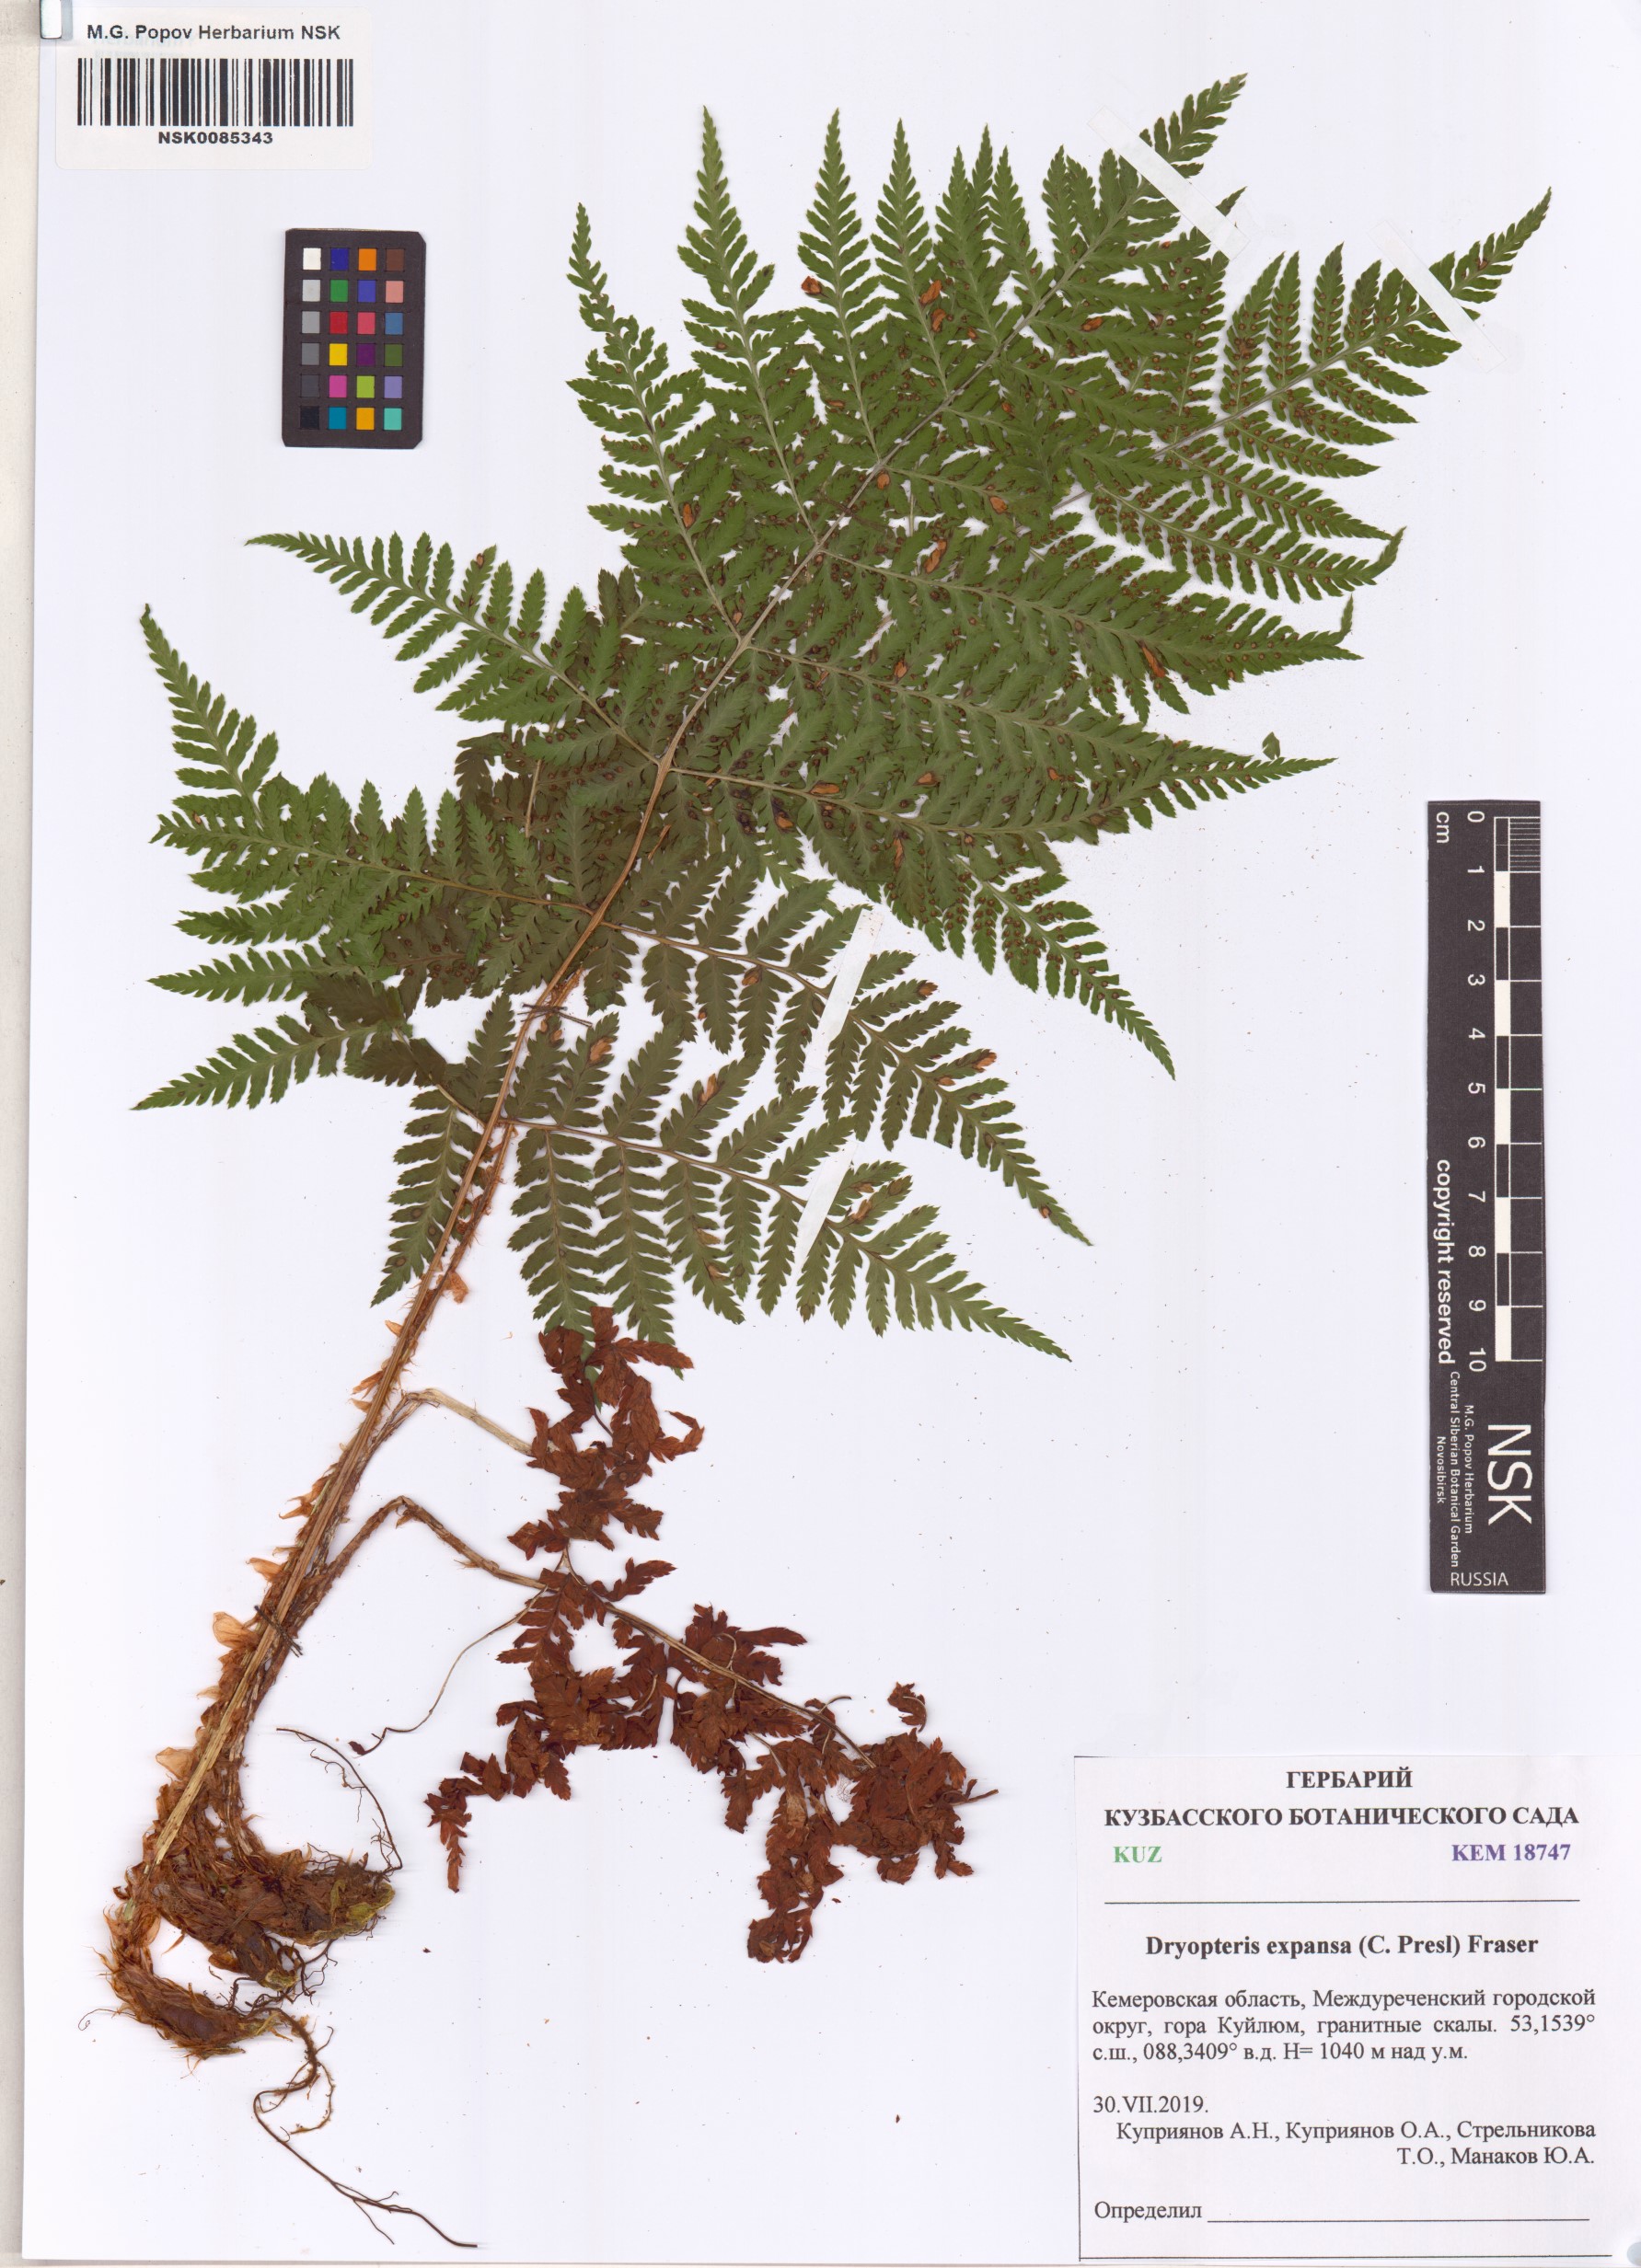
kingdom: Plantae
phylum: Tracheophyta
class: Polypodiopsida
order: Polypodiales
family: Dryopteridaceae
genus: Dryopteris
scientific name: Dryopteris expansa
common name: Northern buckler fern
